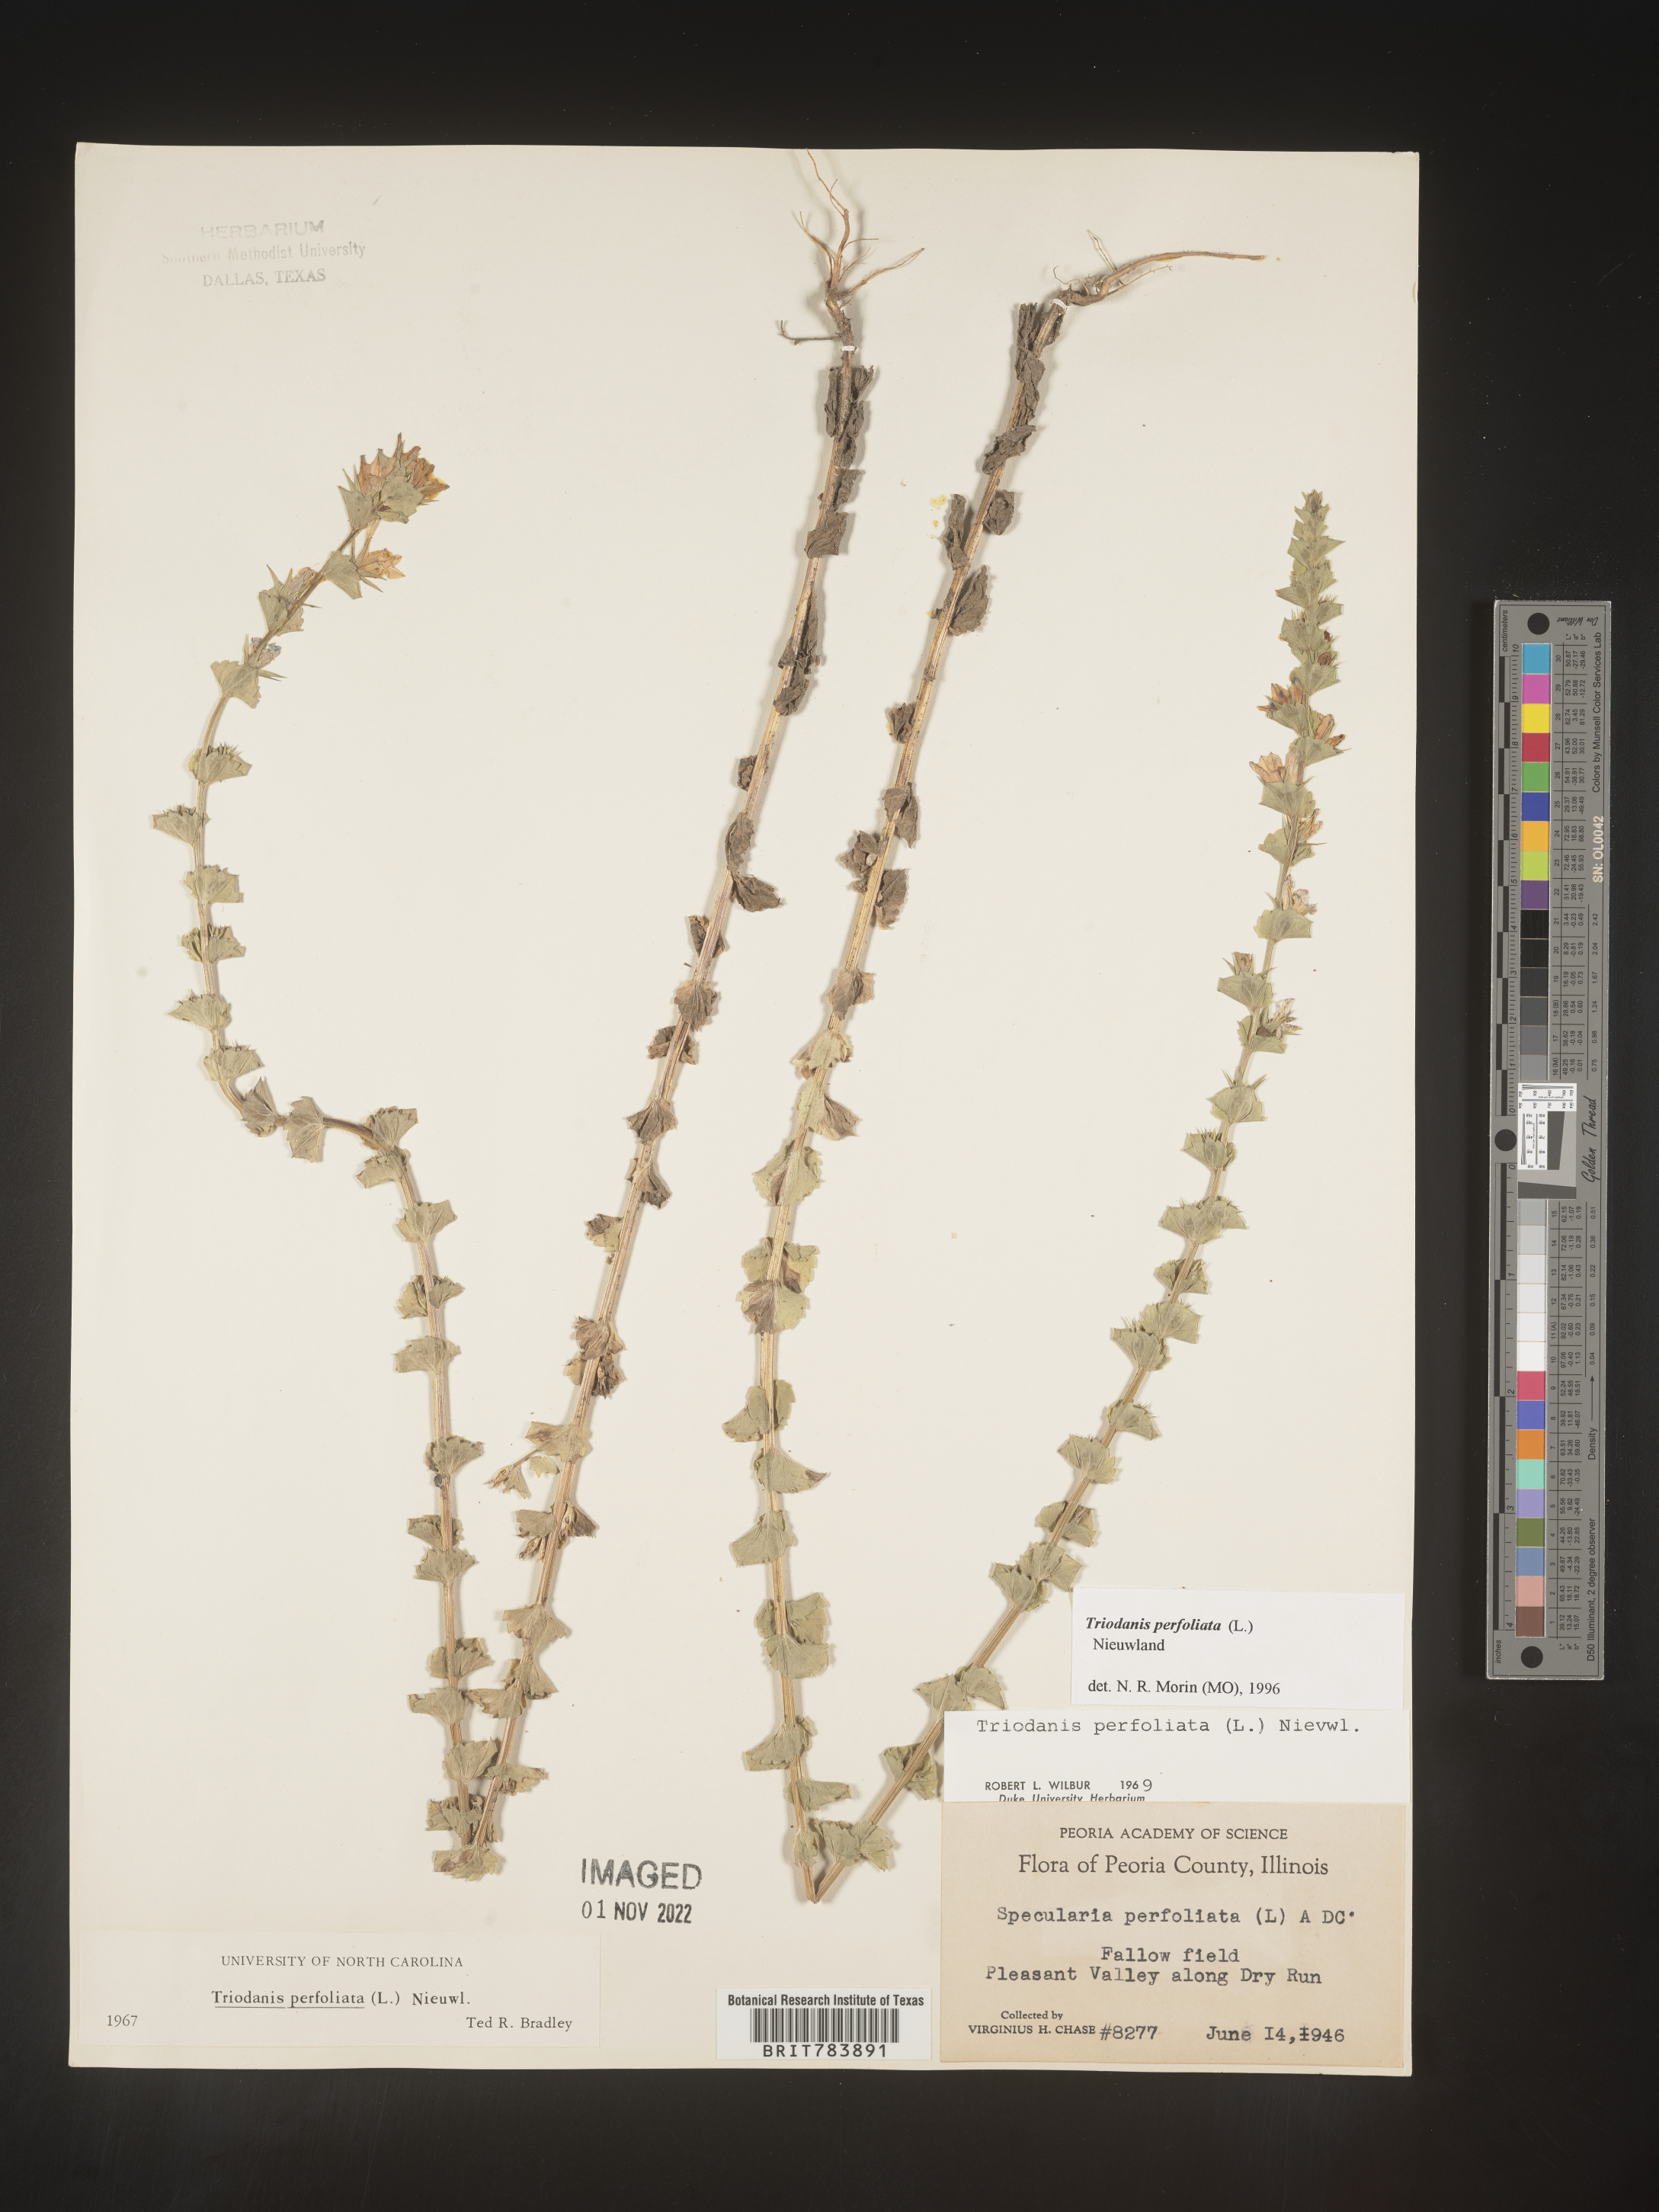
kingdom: Plantae
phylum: Tracheophyta
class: Magnoliopsida
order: Asterales
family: Campanulaceae
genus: Triodanis
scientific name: Triodanis perfoliata
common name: Clasping venus' looking-glass
